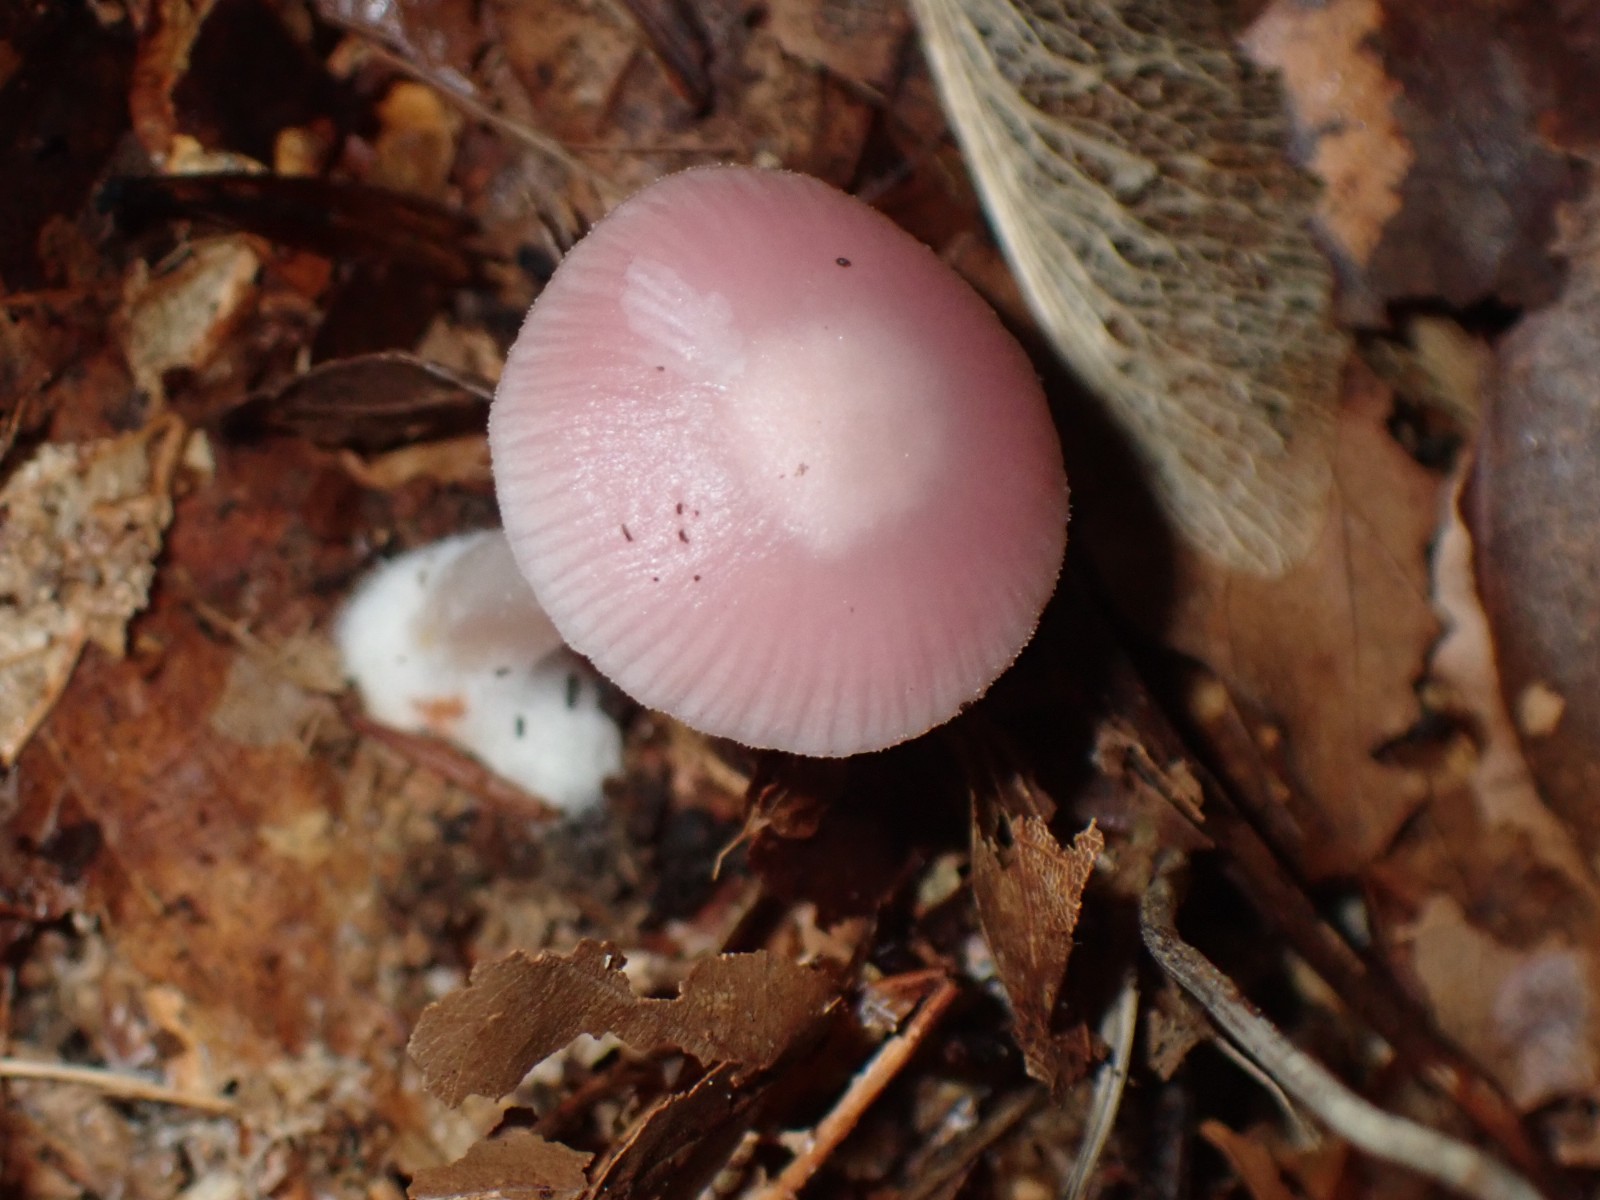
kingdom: Fungi
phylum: Basidiomycota
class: Agaricomycetes
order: Agaricales
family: Mycenaceae
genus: Mycena
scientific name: Mycena rosea
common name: rosa huesvamp
